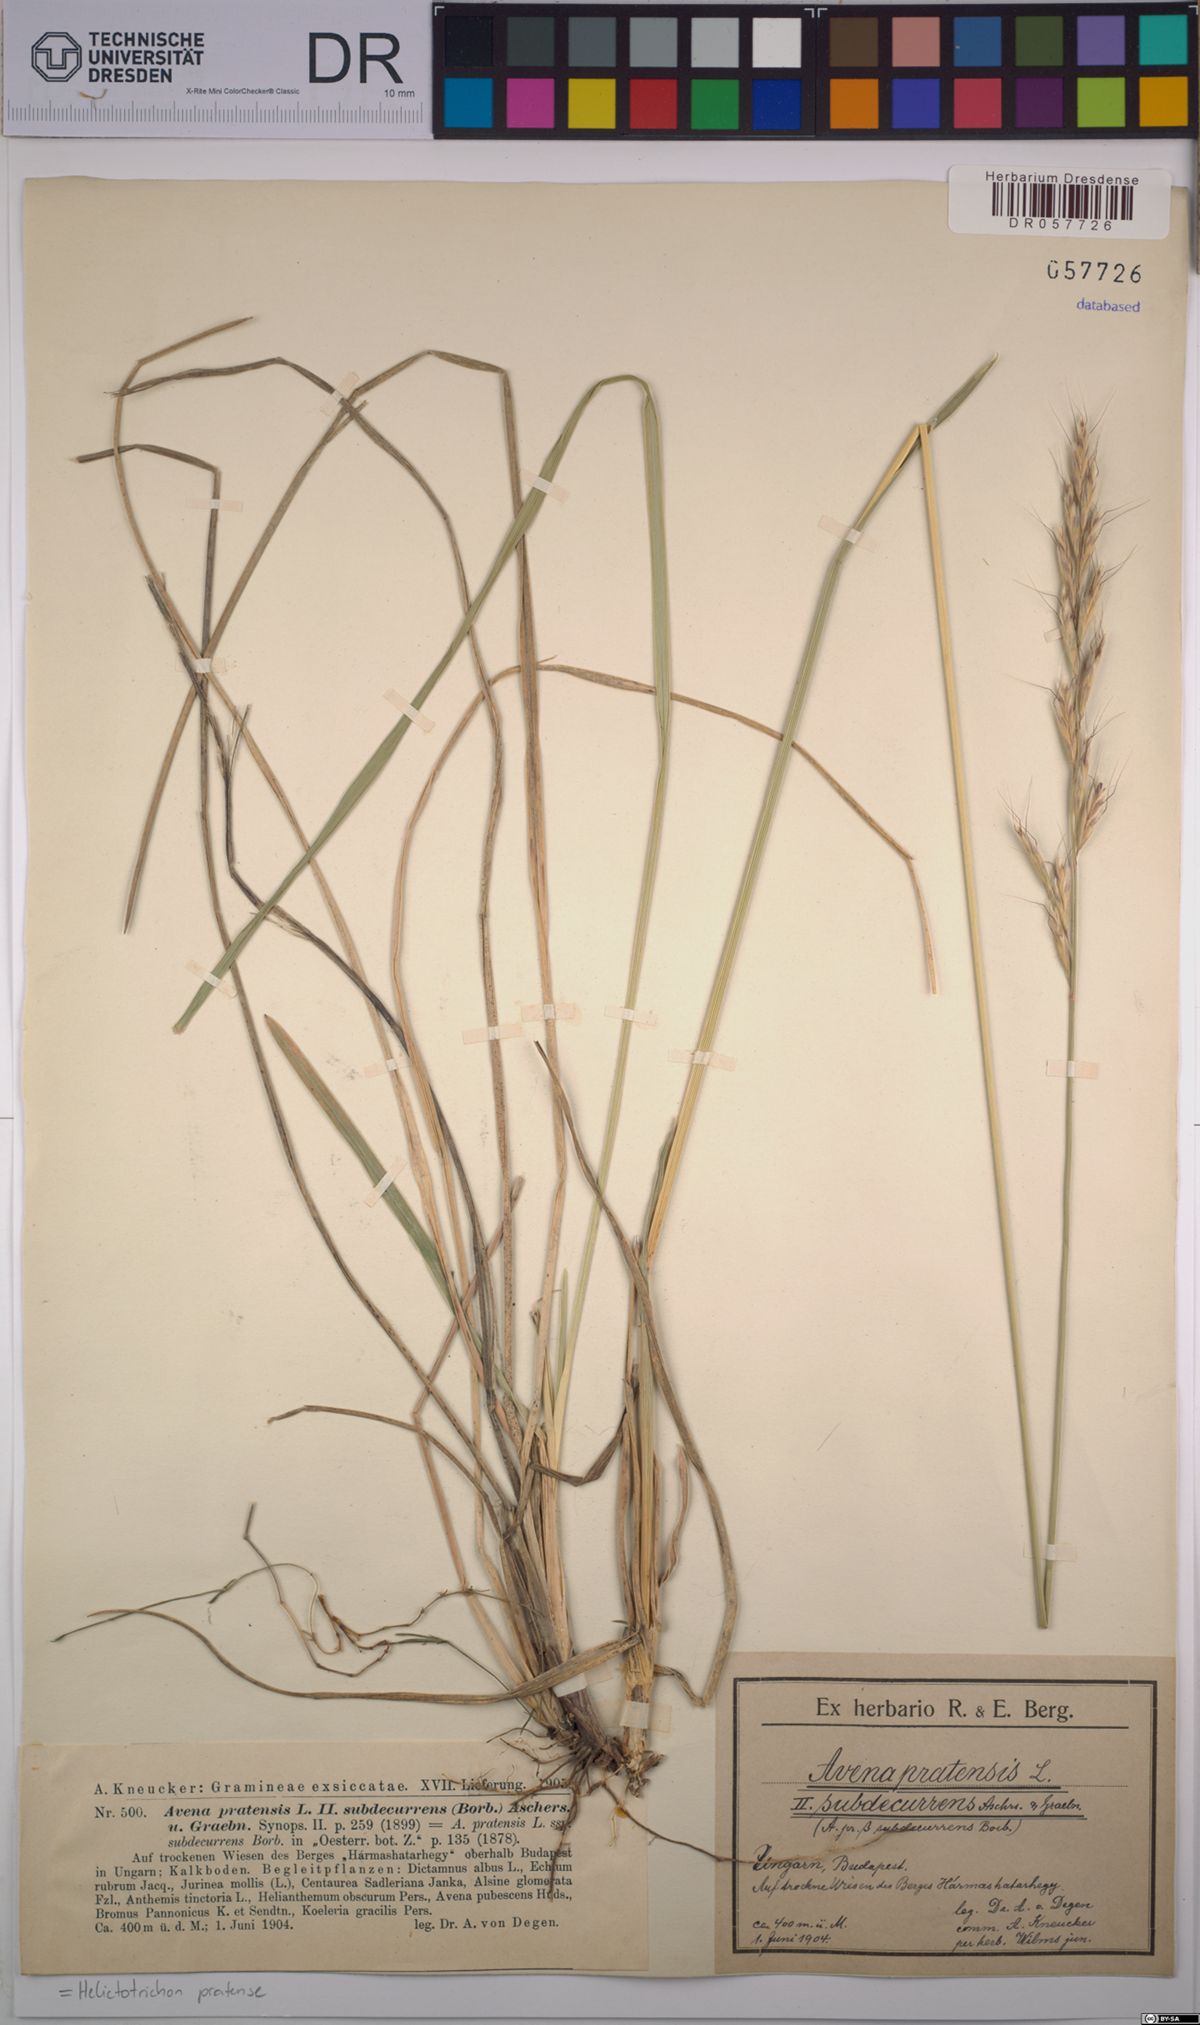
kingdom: Plantae
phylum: Tracheophyta
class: Liliopsida
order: Poales
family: Poaceae
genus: Helictochloa
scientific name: Helictochloa pratensis
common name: Meadow oat grass
